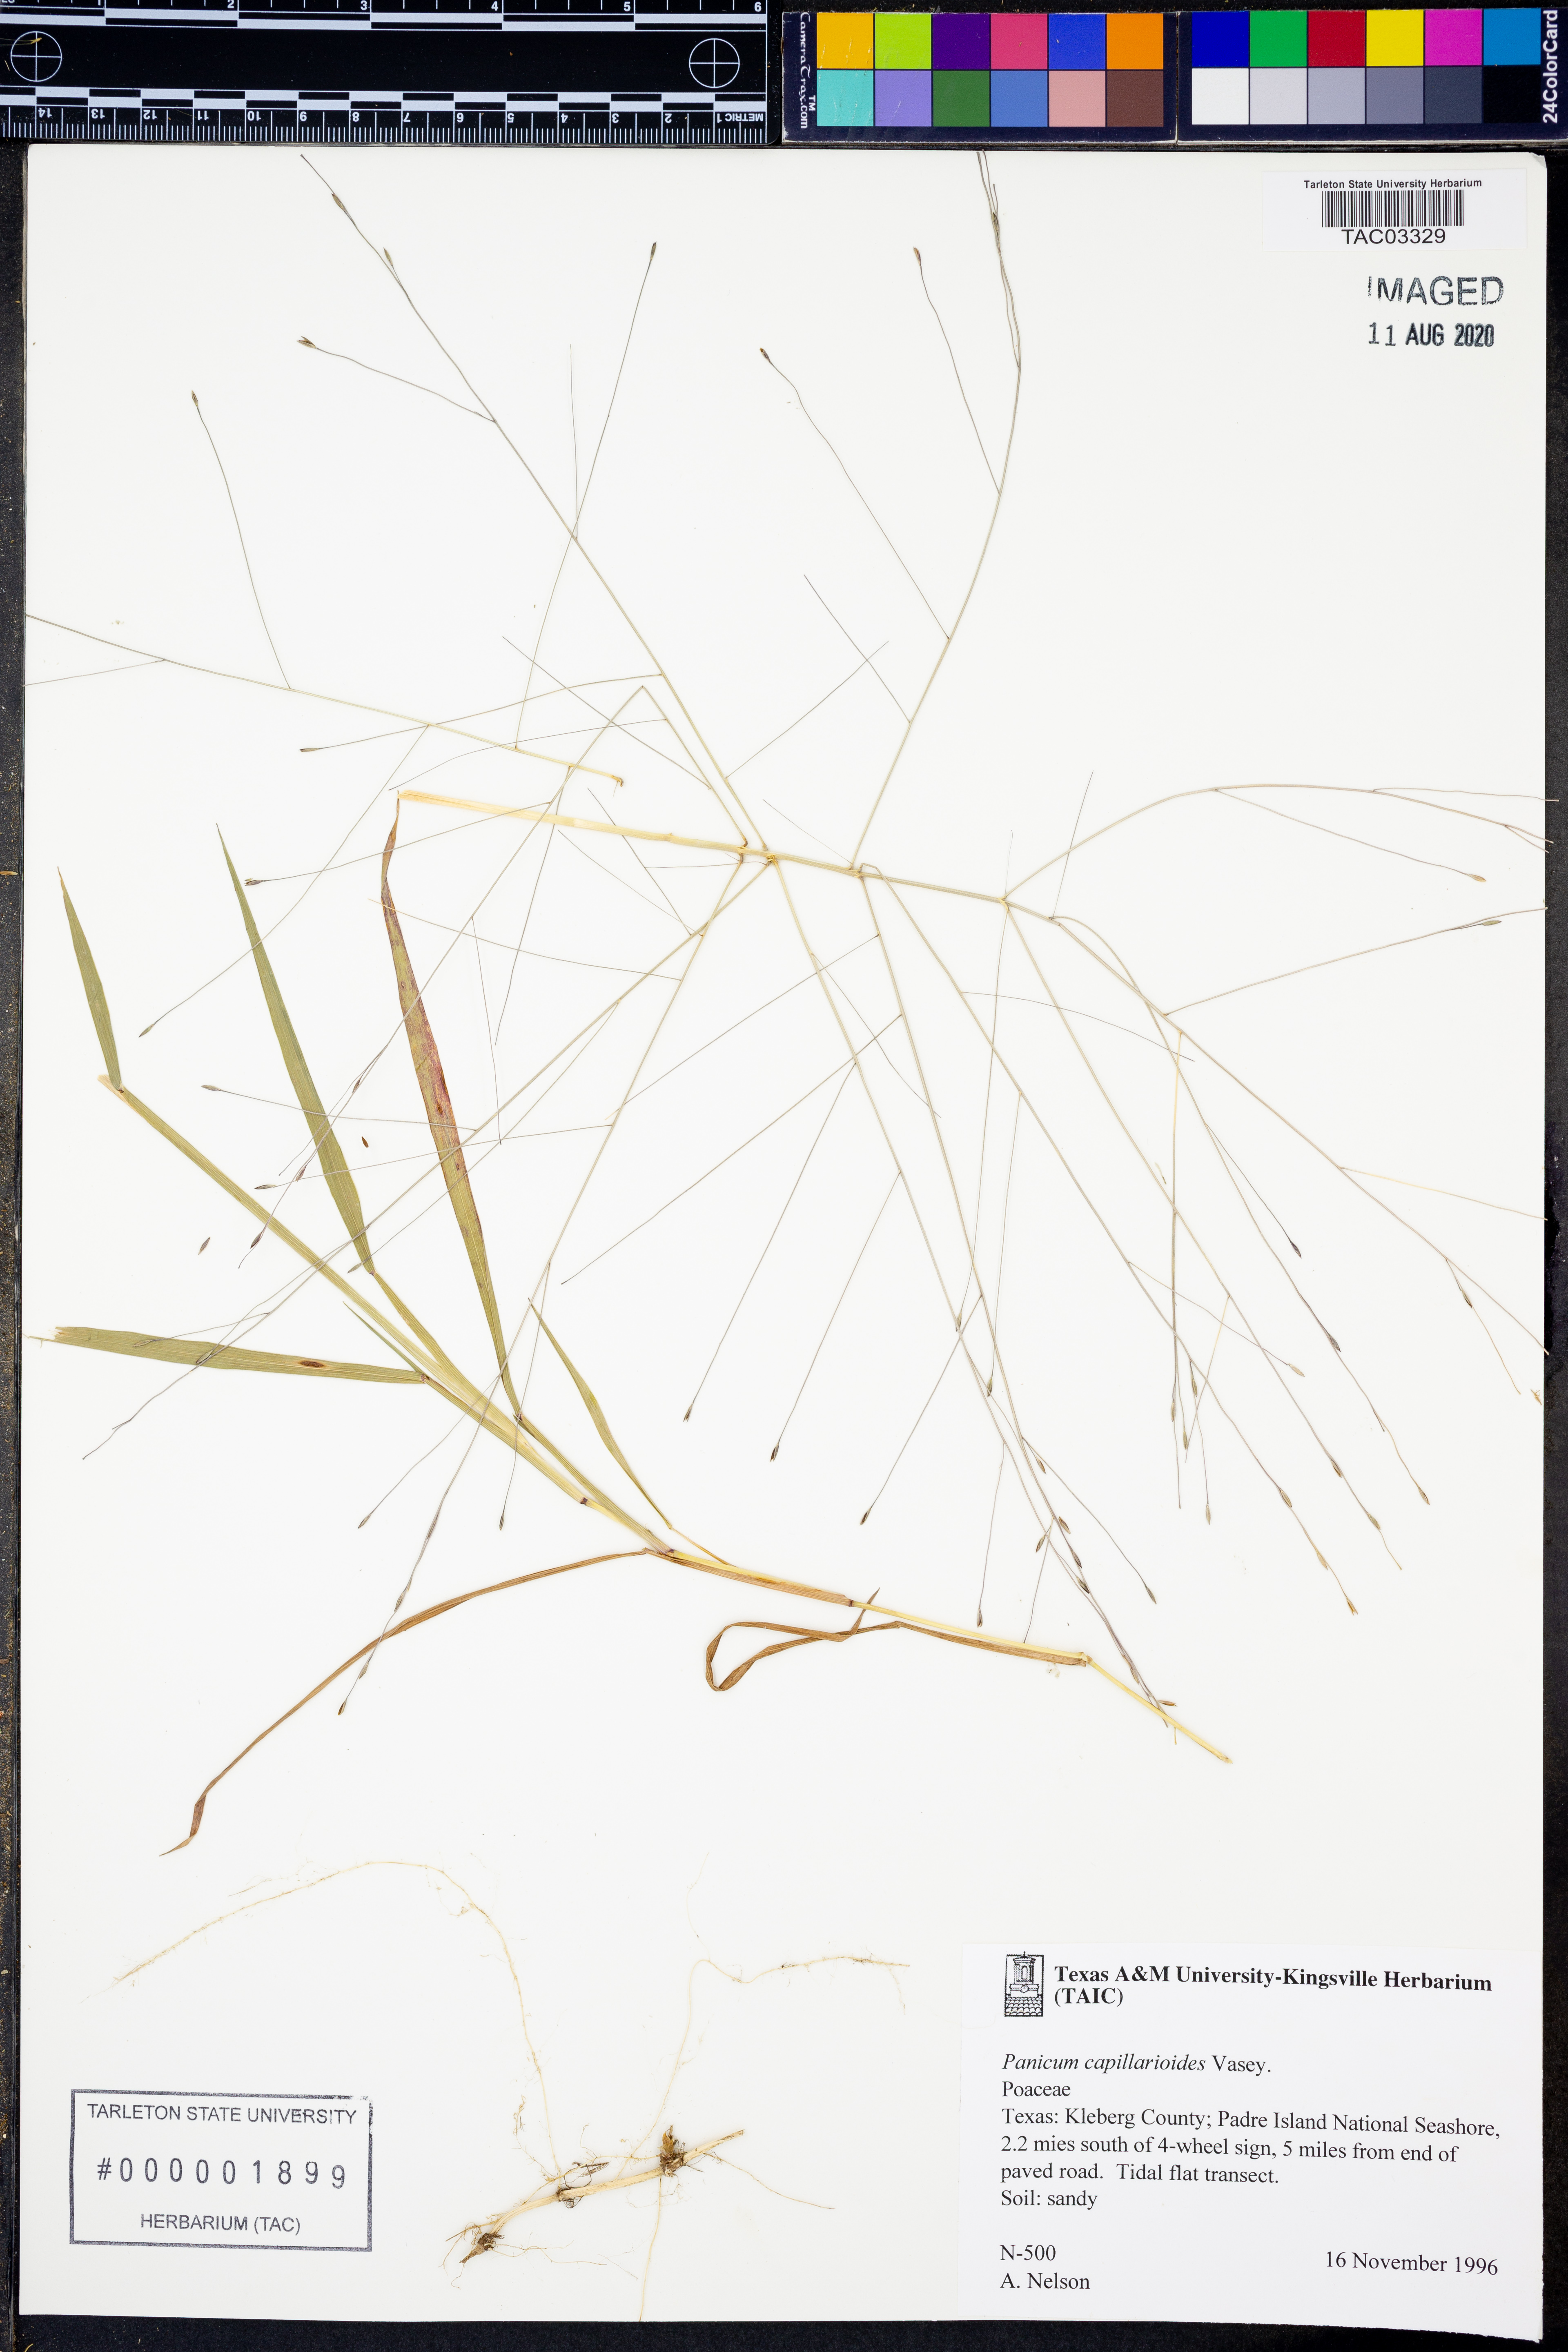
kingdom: Plantae
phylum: Tracheophyta
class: Liliopsida
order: Poales
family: Poaceae
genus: Panicum
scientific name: Panicum capillarioides
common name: Long-beak witchgrass
